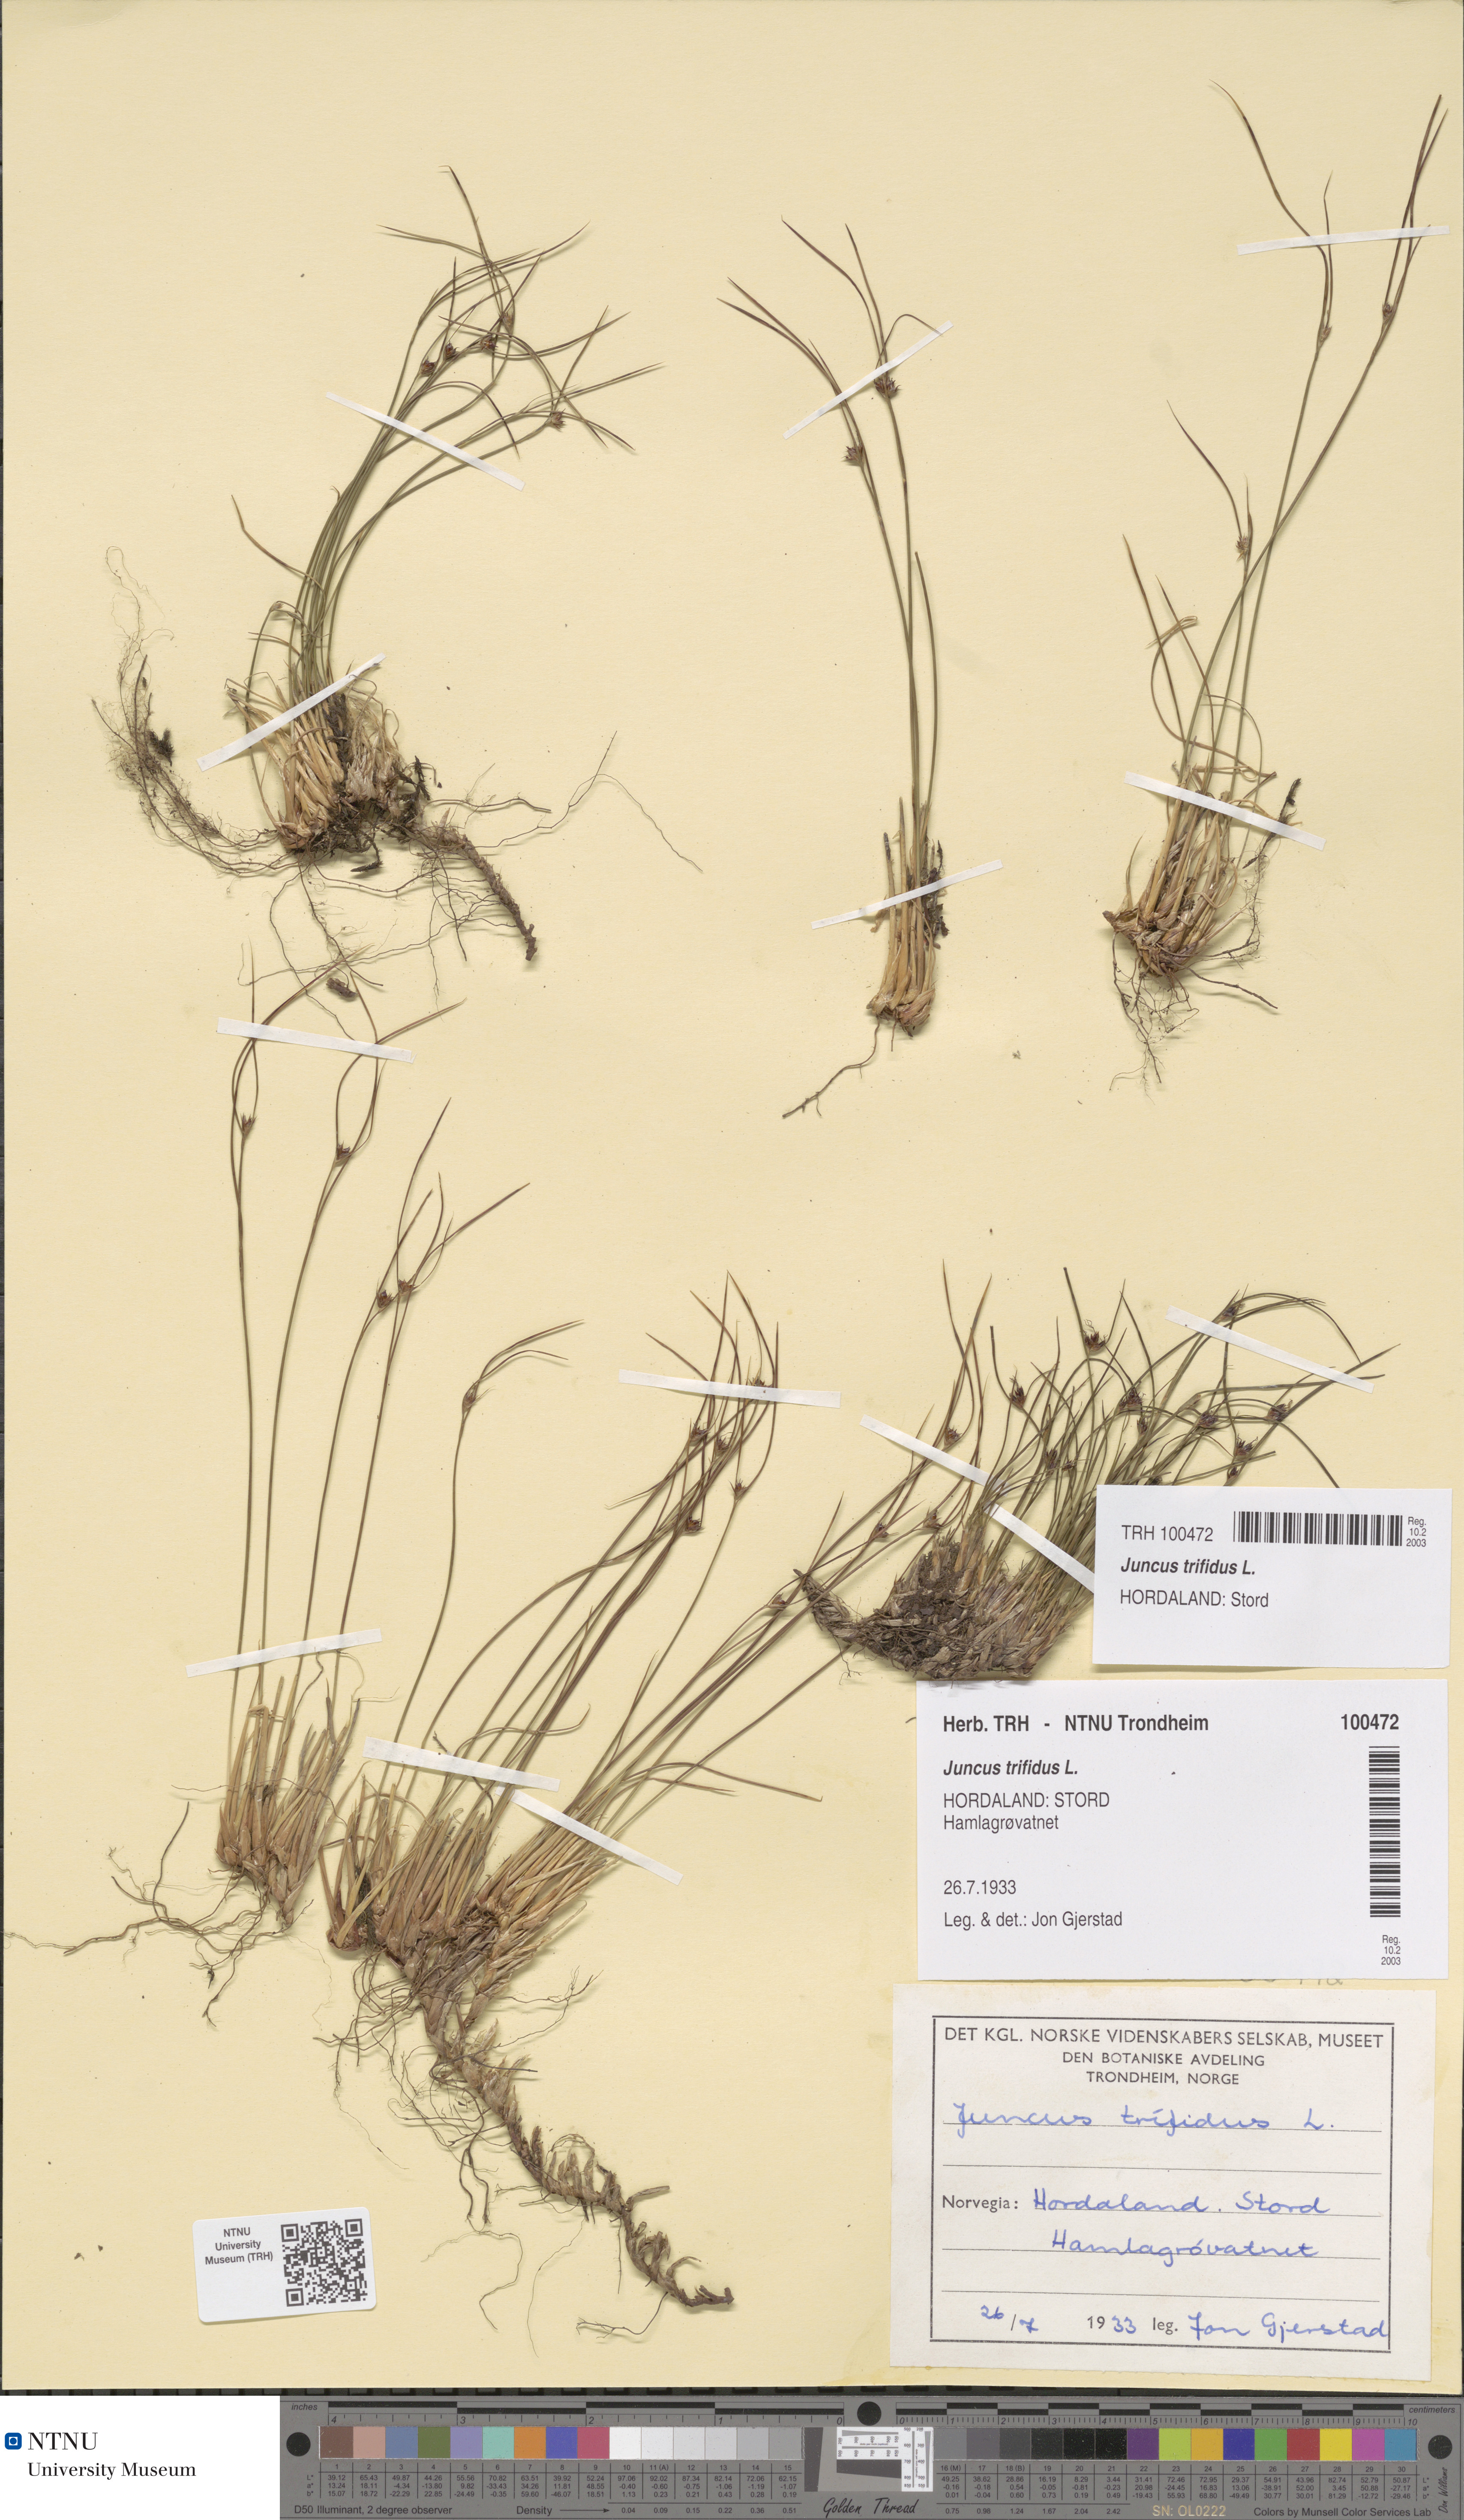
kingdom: Plantae
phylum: Tracheophyta
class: Liliopsida
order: Poales
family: Juncaceae
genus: Oreojuncus
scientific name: Oreojuncus trifidus
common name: Highland rush
